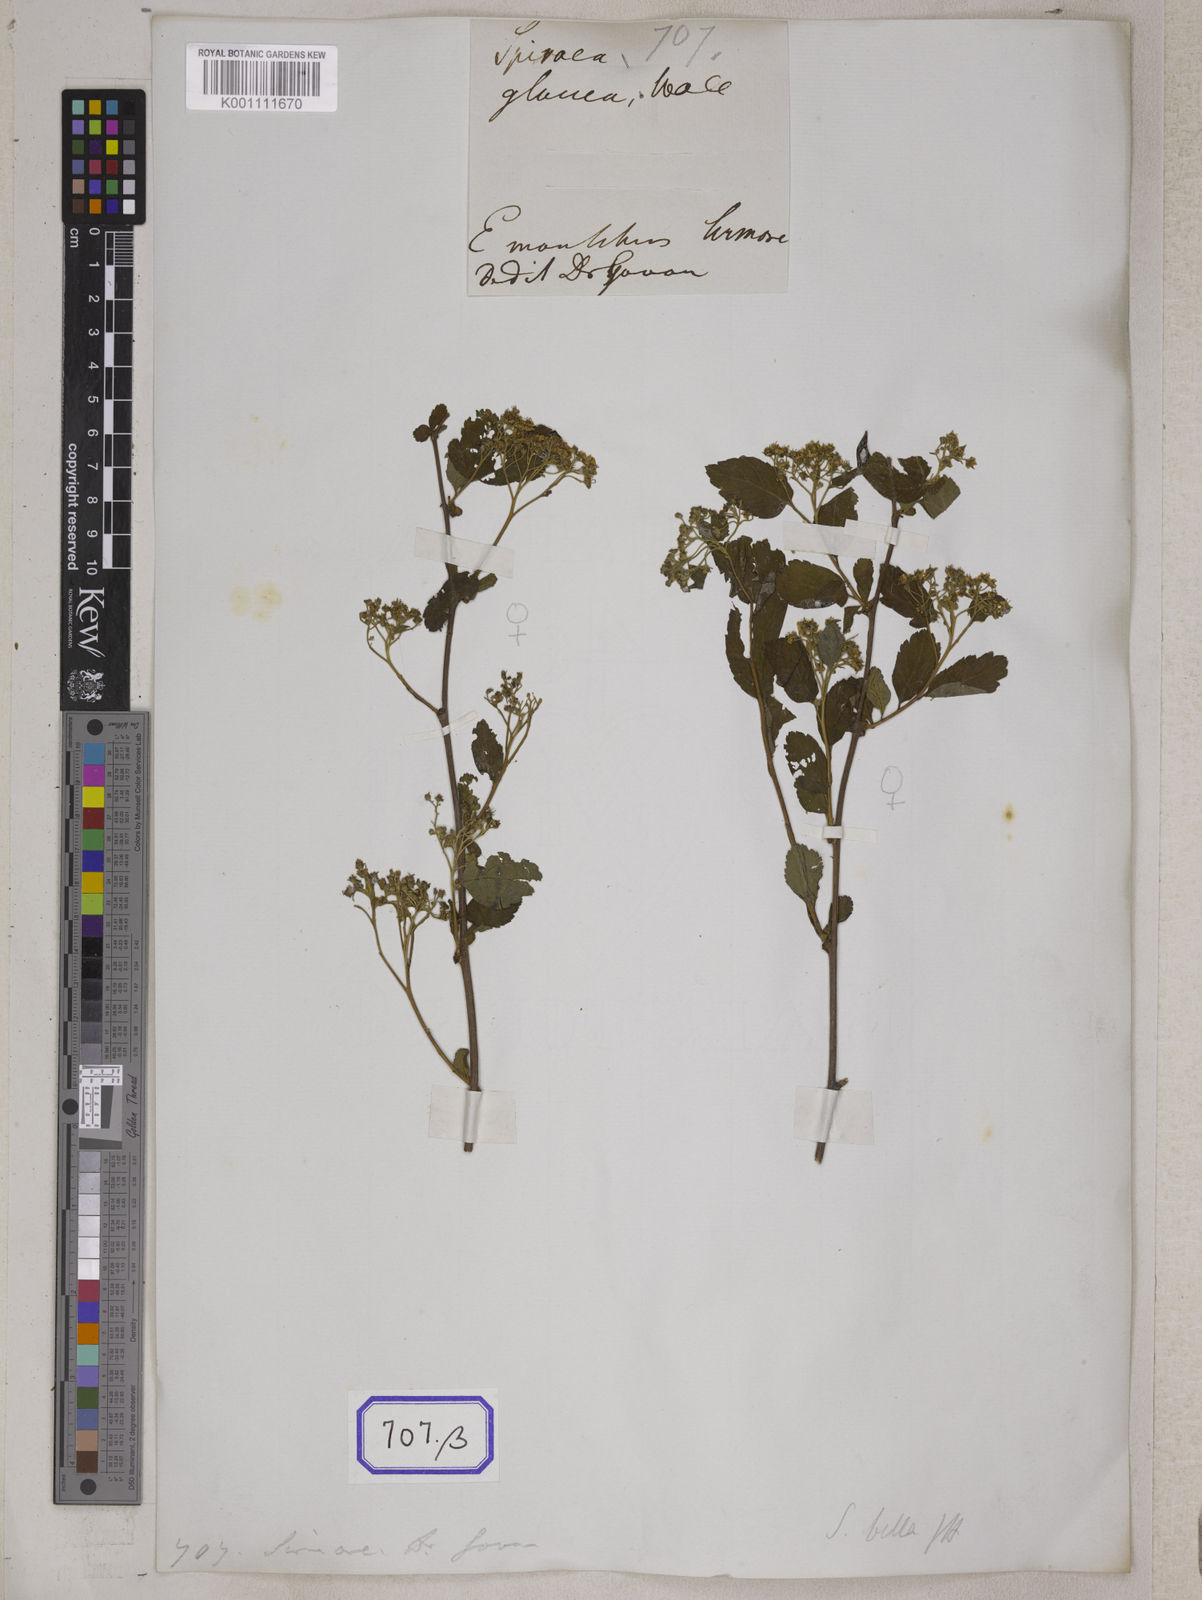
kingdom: Plantae
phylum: Tracheophyta
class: Magnoliopsida
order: Rosales
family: Rosaceae
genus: Spiraea
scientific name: Spiraea bella
